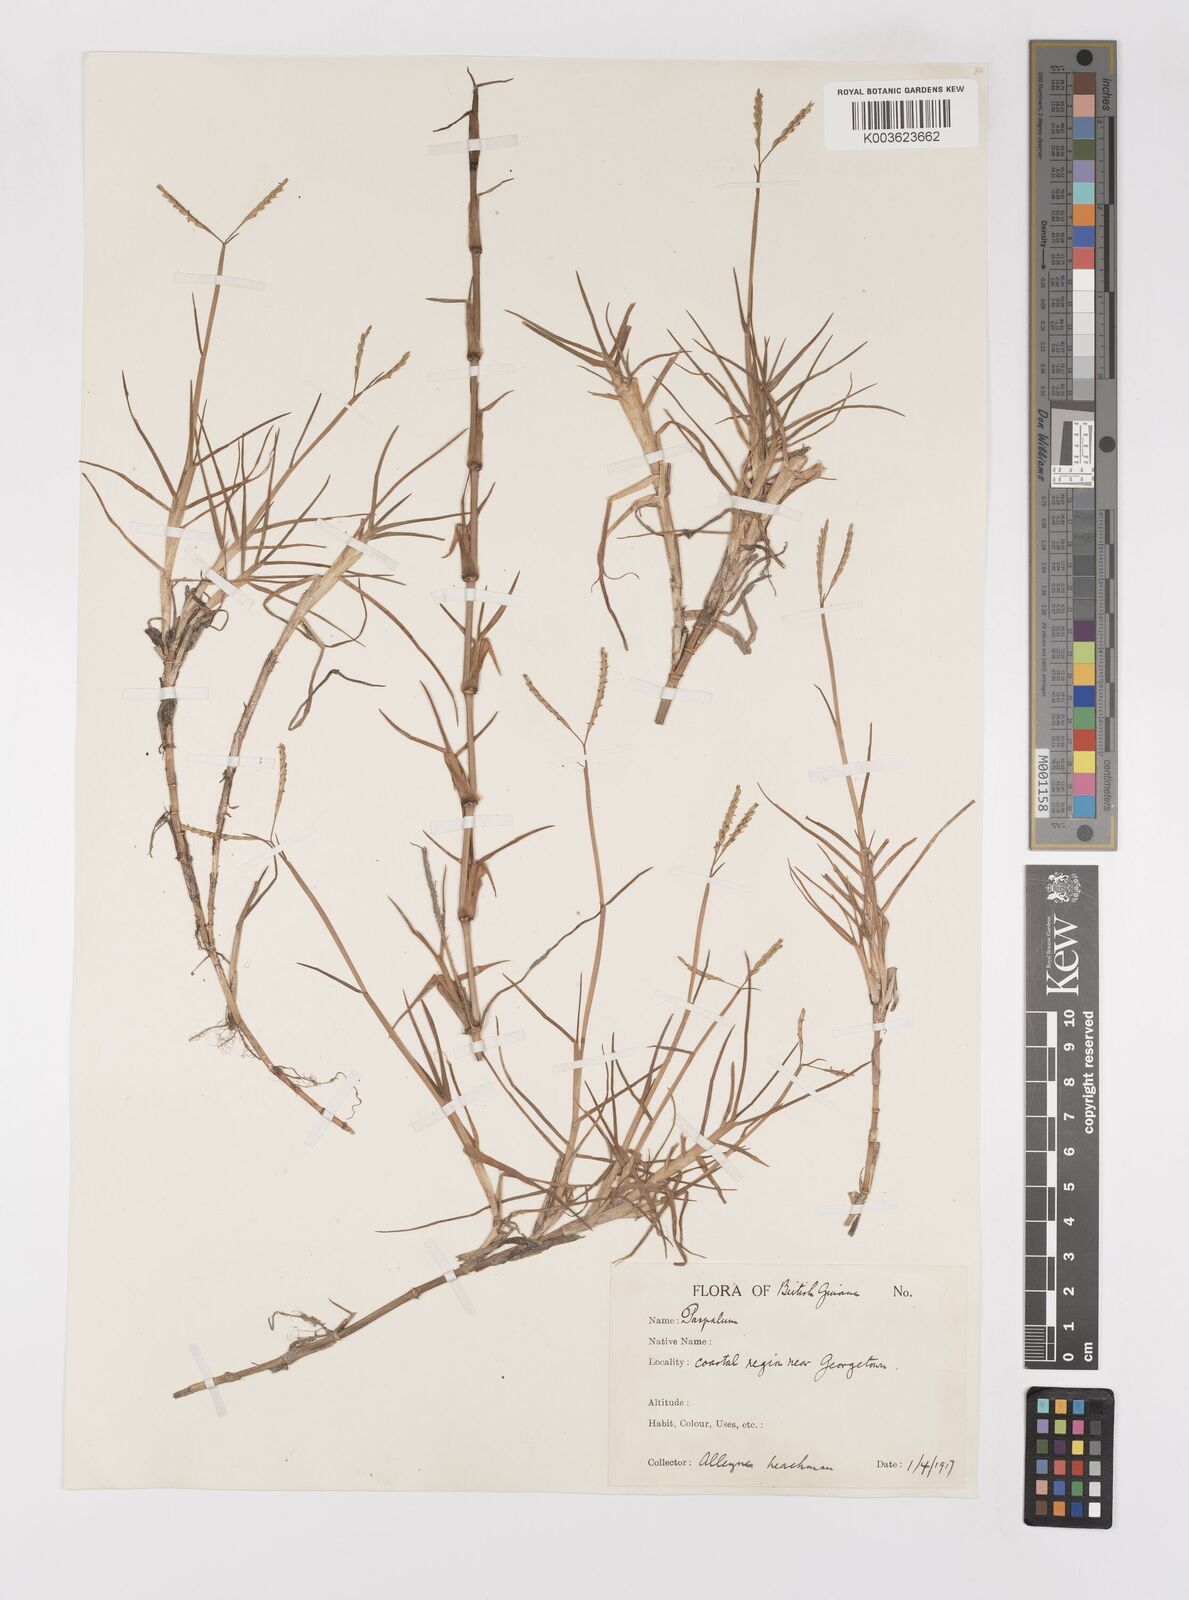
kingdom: Plantae
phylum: Tracheophyta
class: Liliopsida
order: Poales
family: Poaceae
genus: Paspalum
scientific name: Paspalum vaginatum
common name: Seashore paspalum
